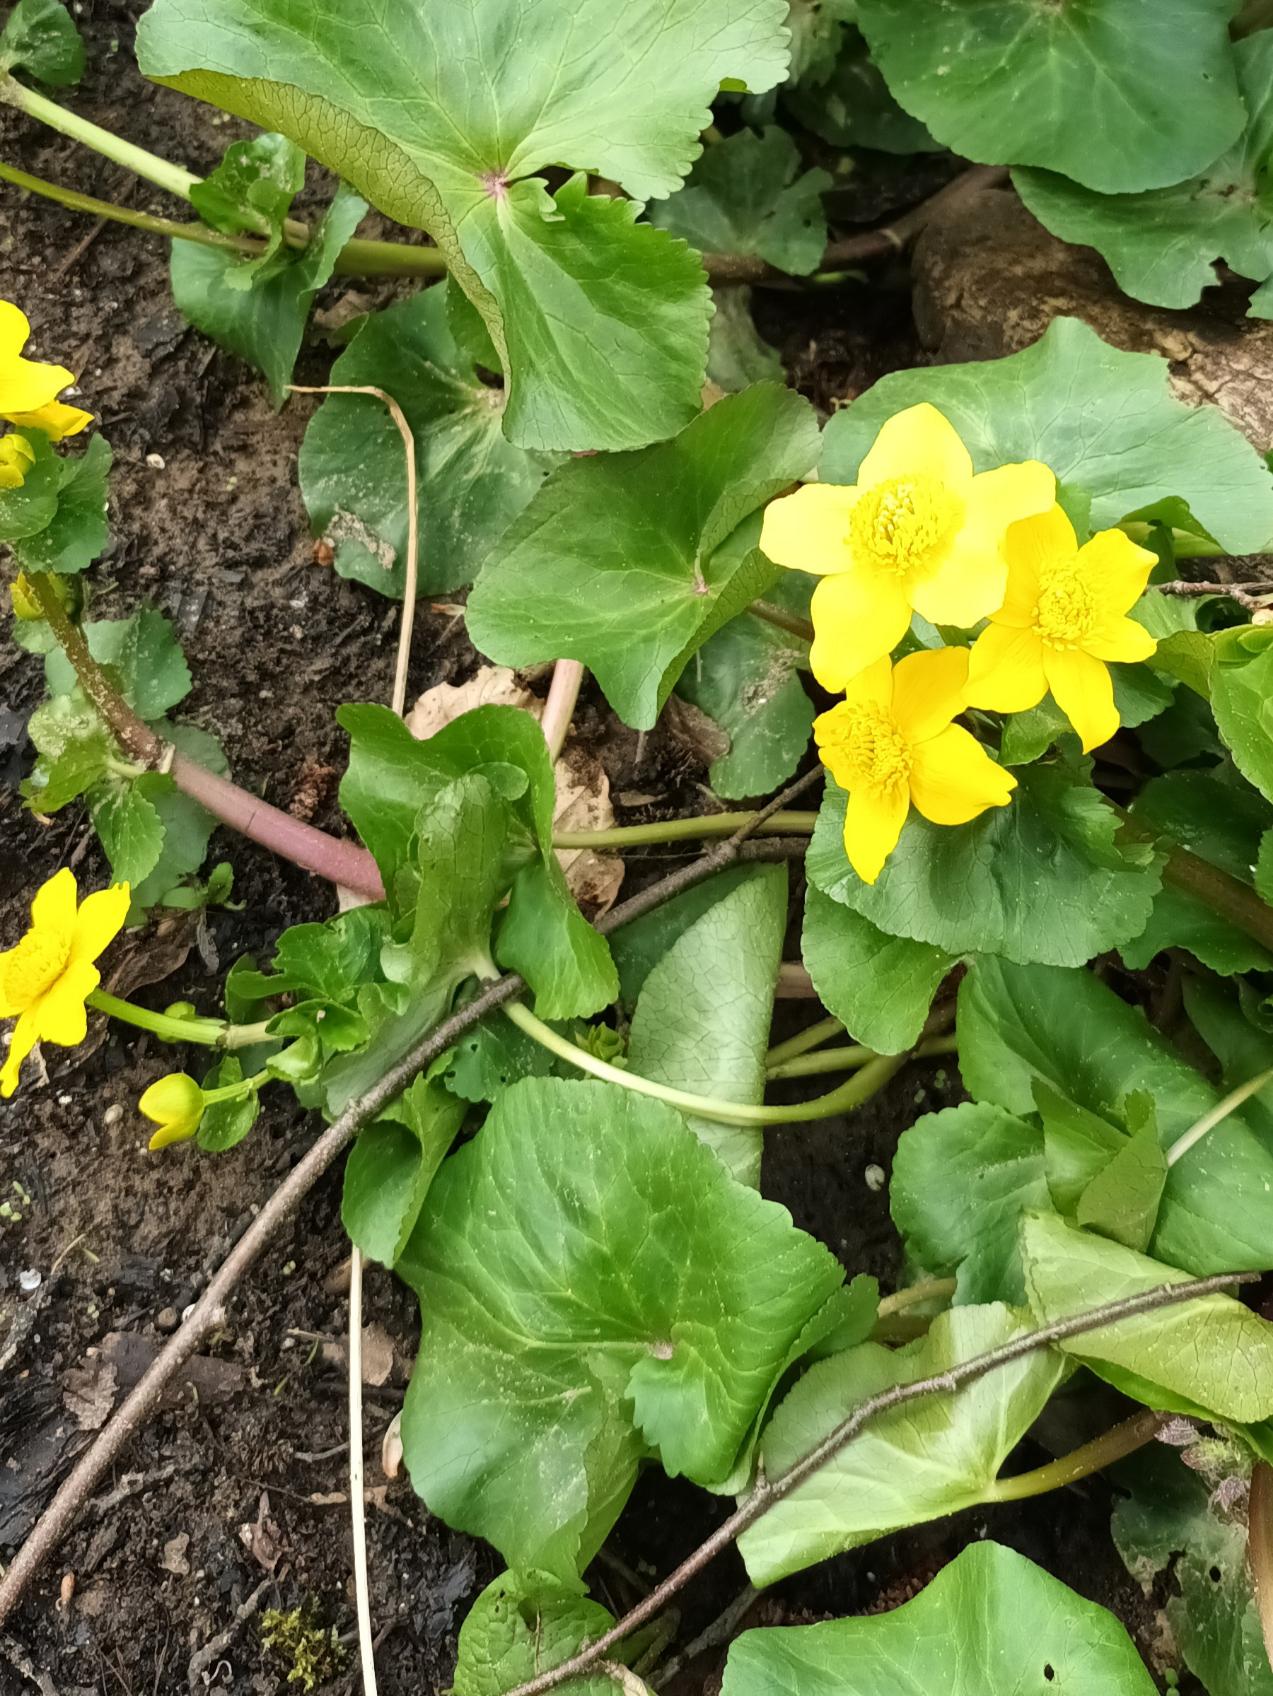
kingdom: Plantae
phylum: Tracheophyta
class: Magnoliopsida
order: Ranunculales
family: Ranunculaceae
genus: Caltha
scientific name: Caltha palustris
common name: Eng-kabbeleje
